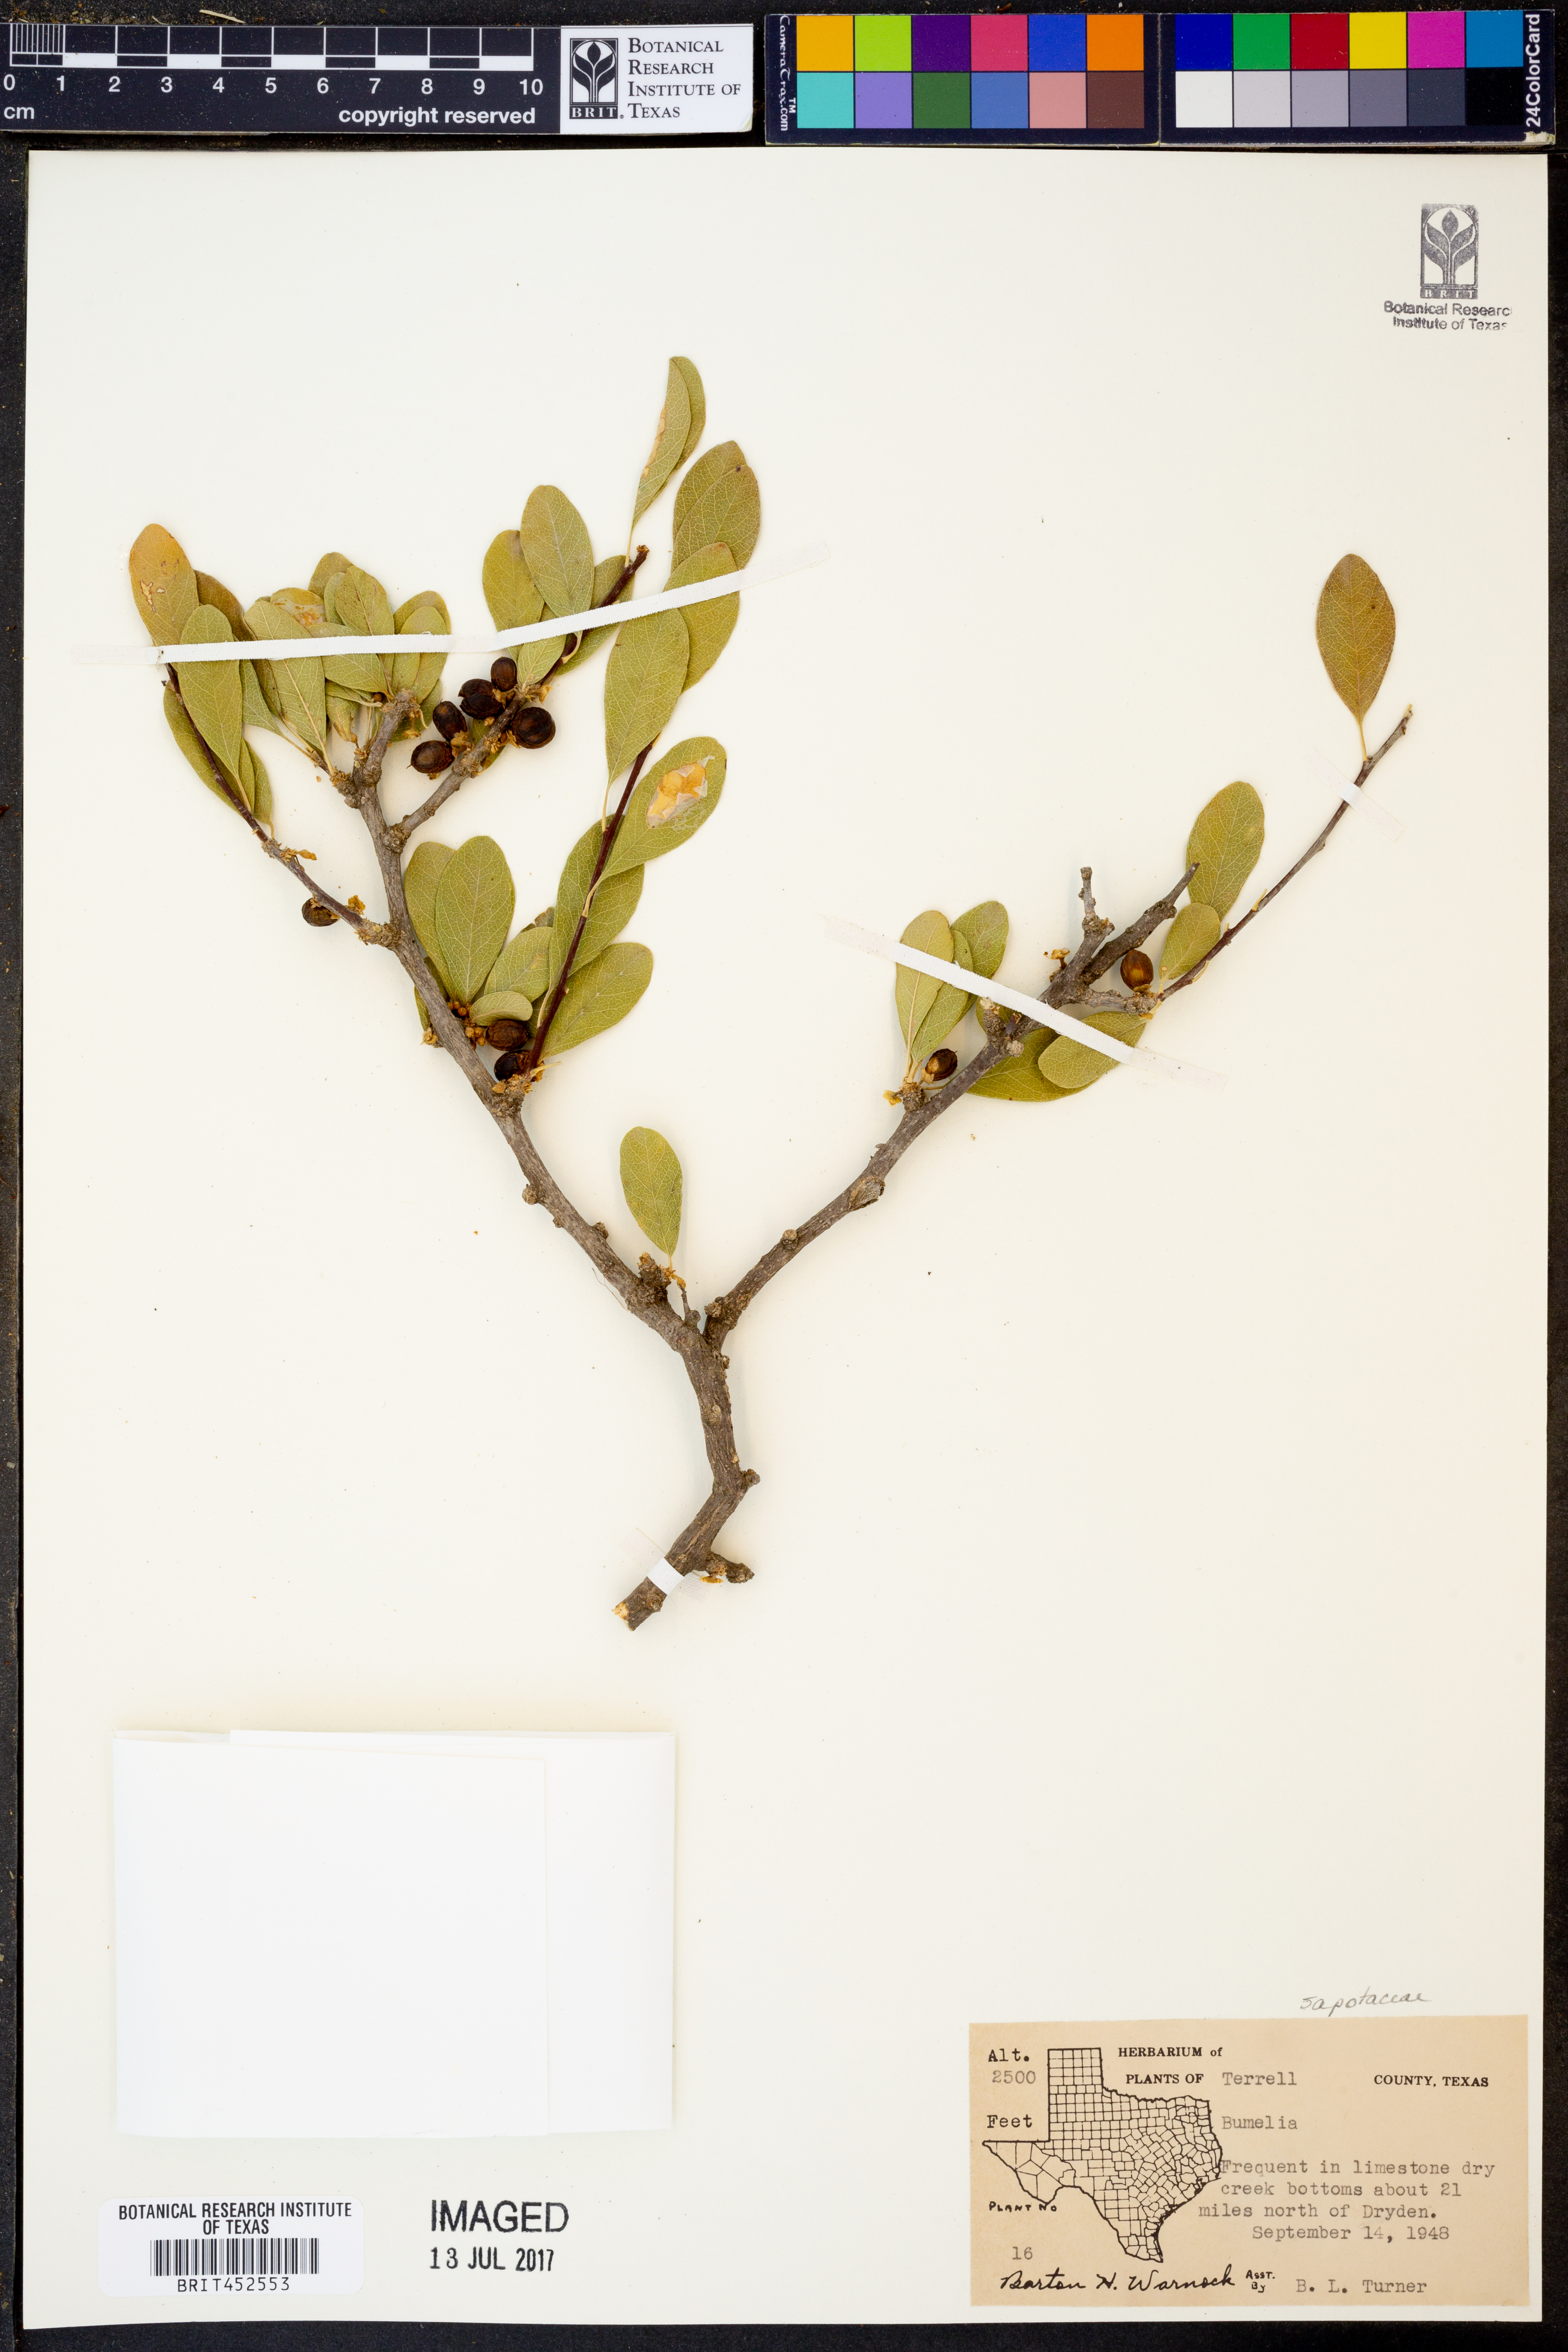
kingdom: Plantae
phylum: Tracheophyta
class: Magnoliopsida
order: Ericales
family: Sapotaceae
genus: Sideroxylon
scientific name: Sideroxylon
